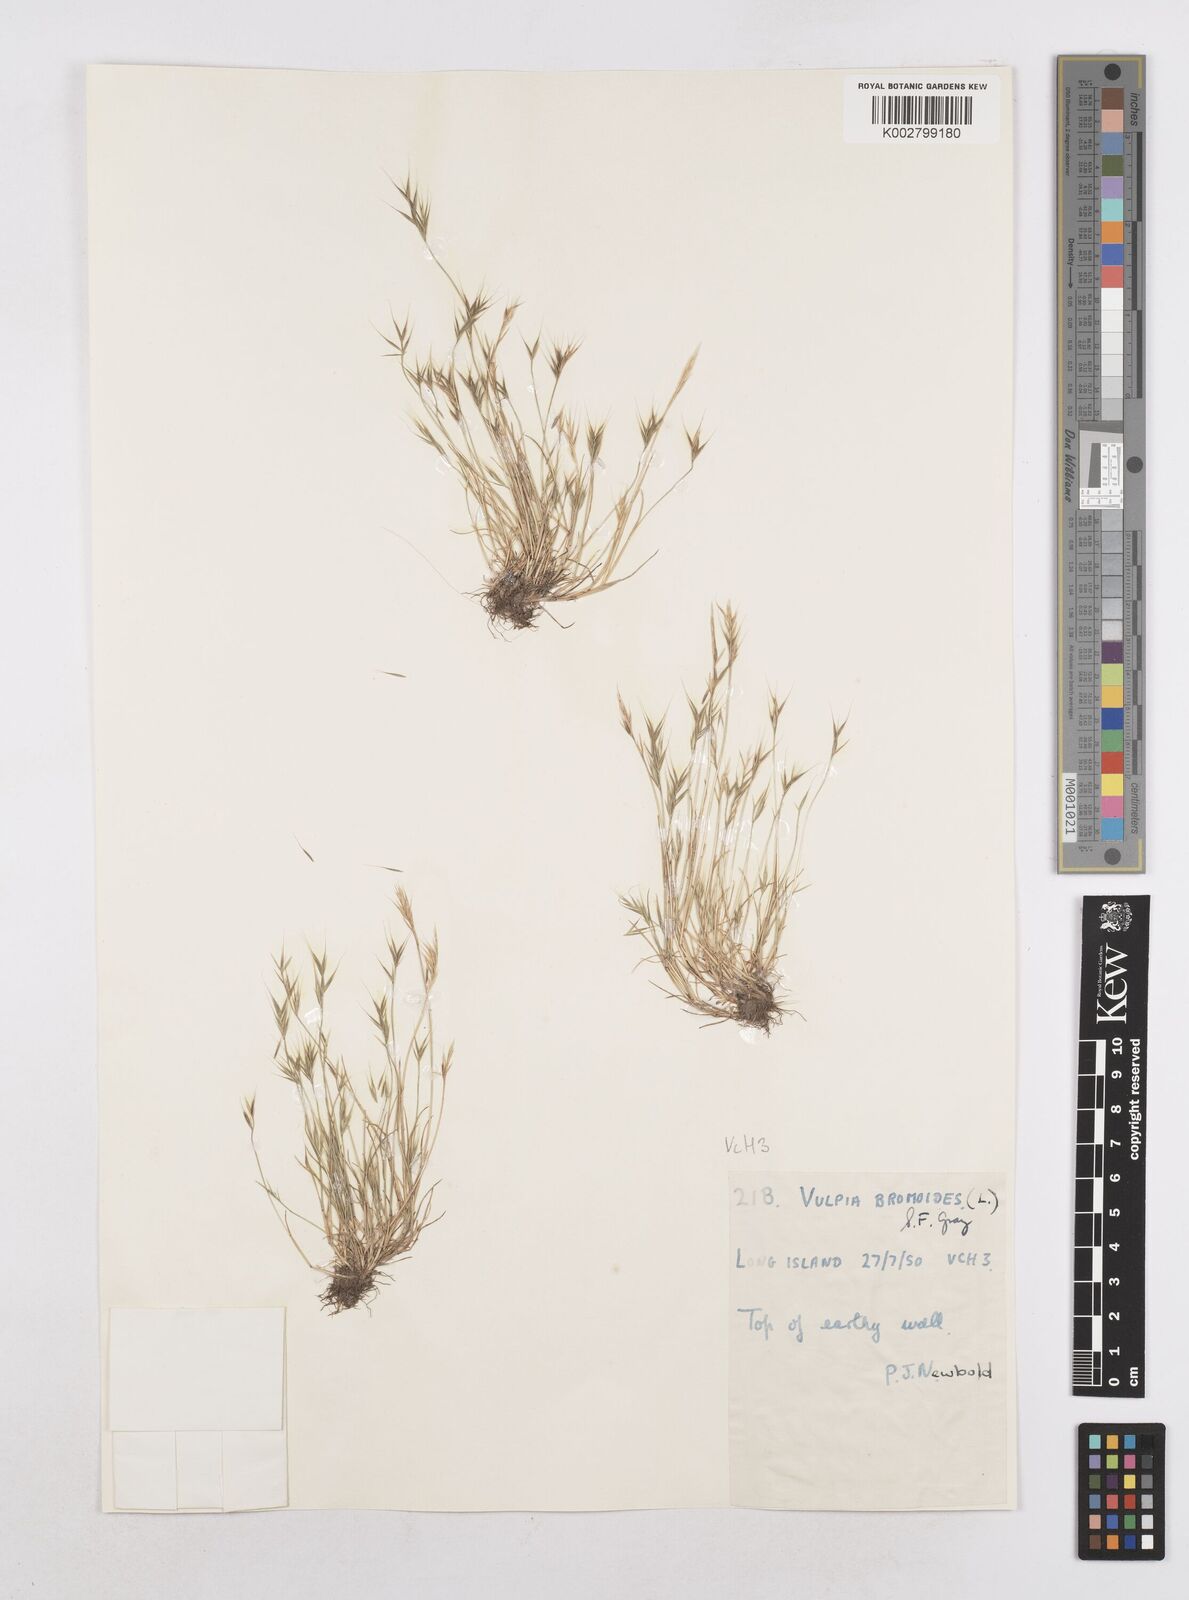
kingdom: Plantae
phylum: Tracheophyta
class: Liliopsida
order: Poales
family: Poaceae
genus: Festuca
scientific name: Festuca bromoides
